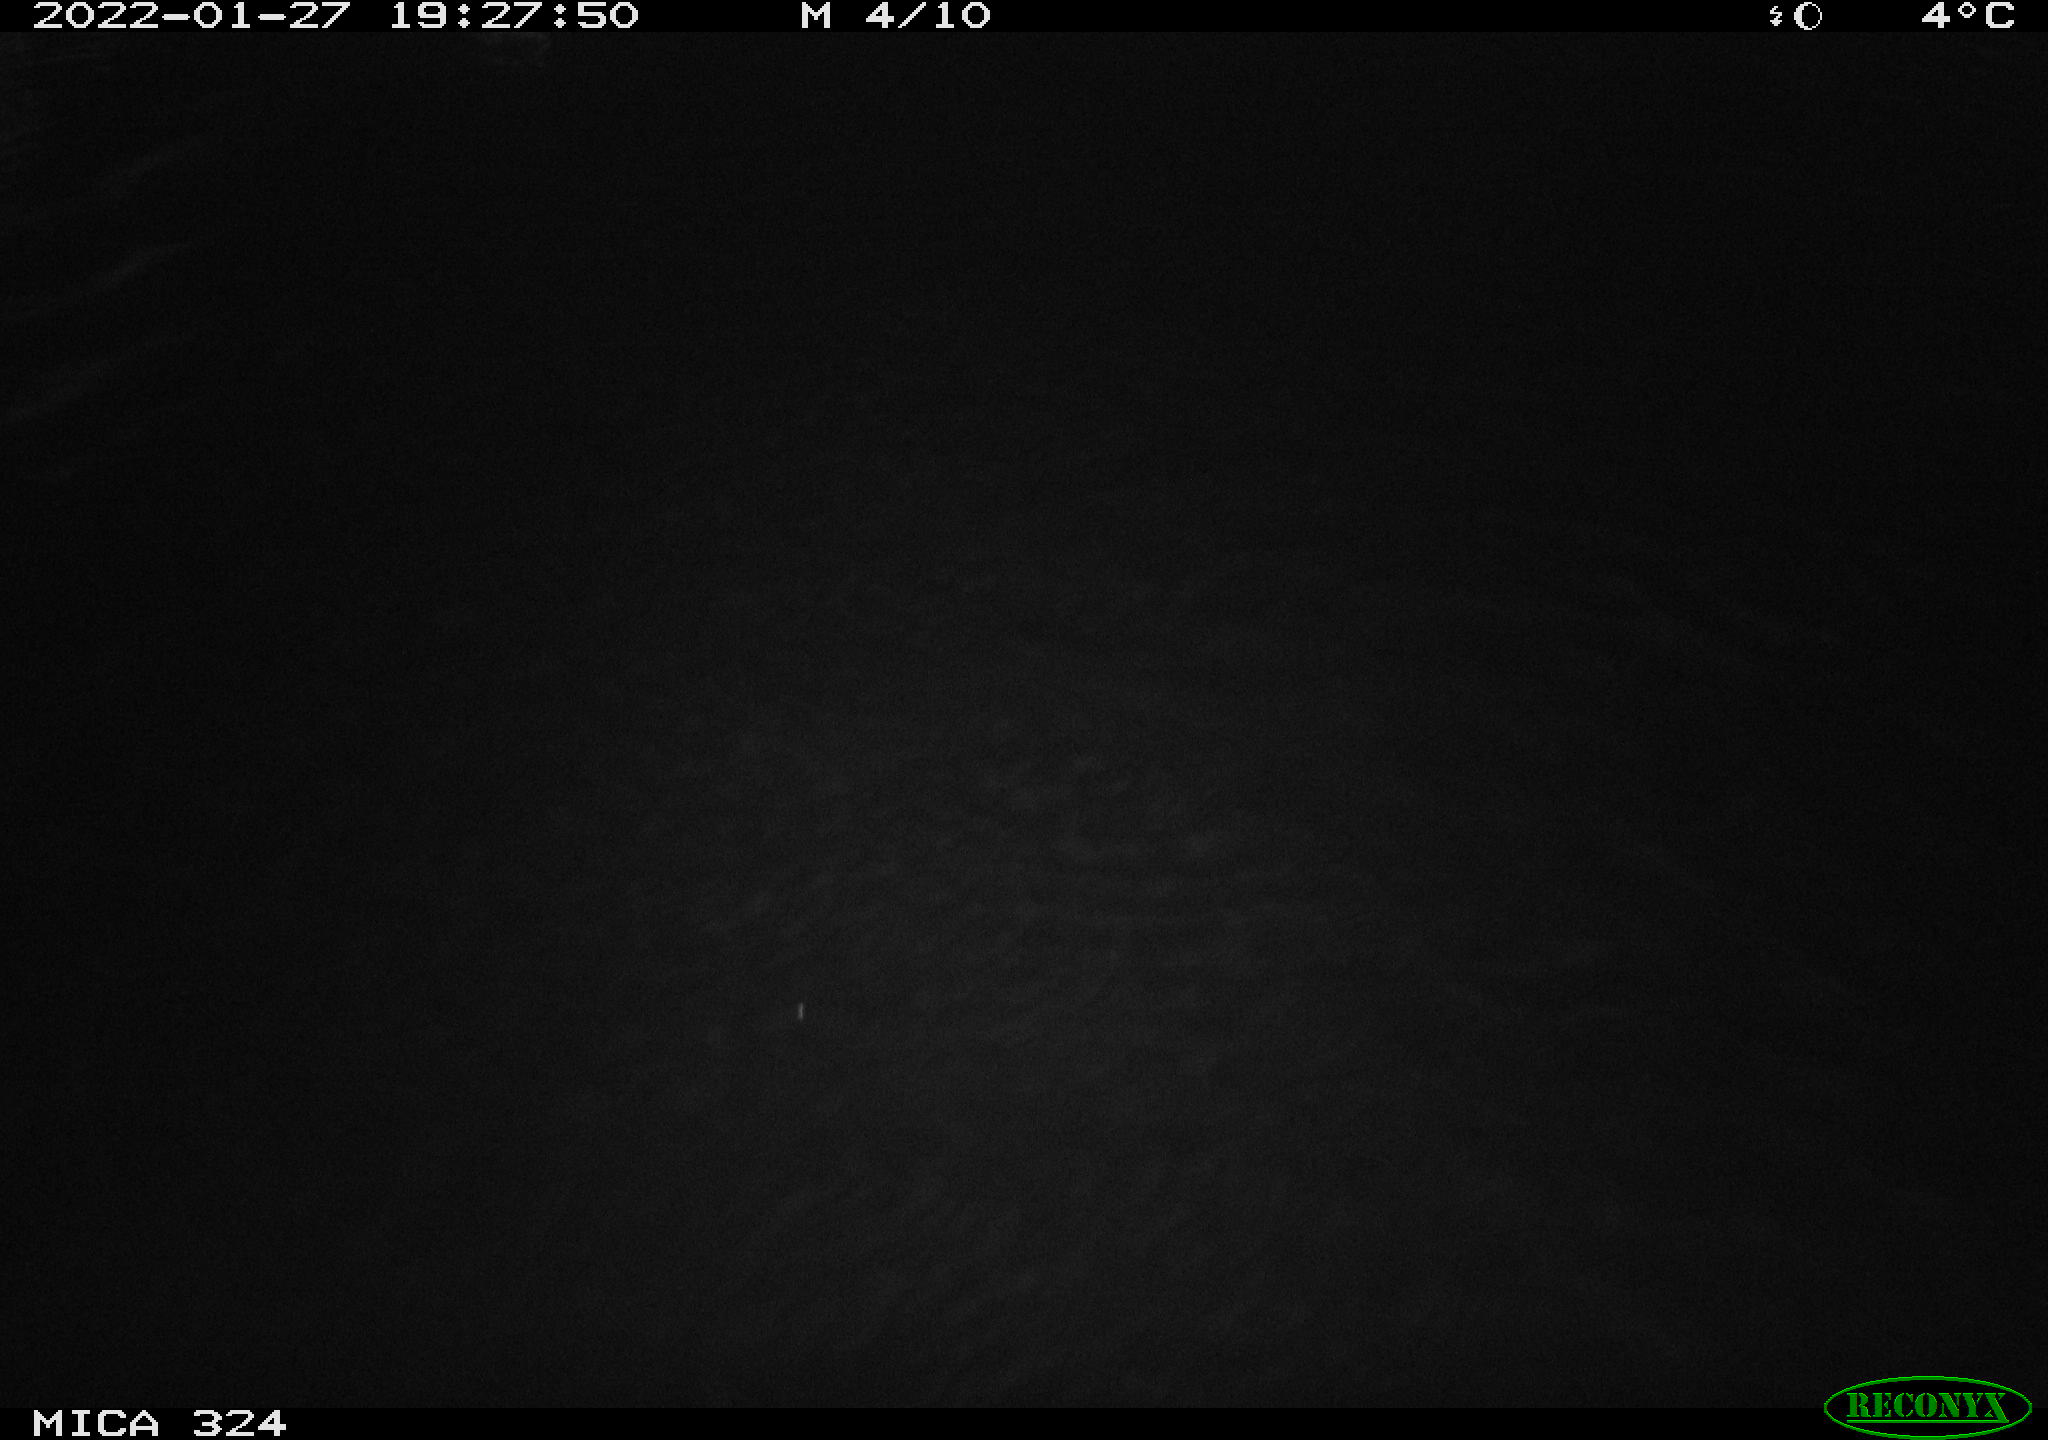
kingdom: Animalia
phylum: Chordata
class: Mammalia
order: Rodentia
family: Cricetidae
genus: Ondatra
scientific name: Ondatra zibethicus
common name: Muskrat
